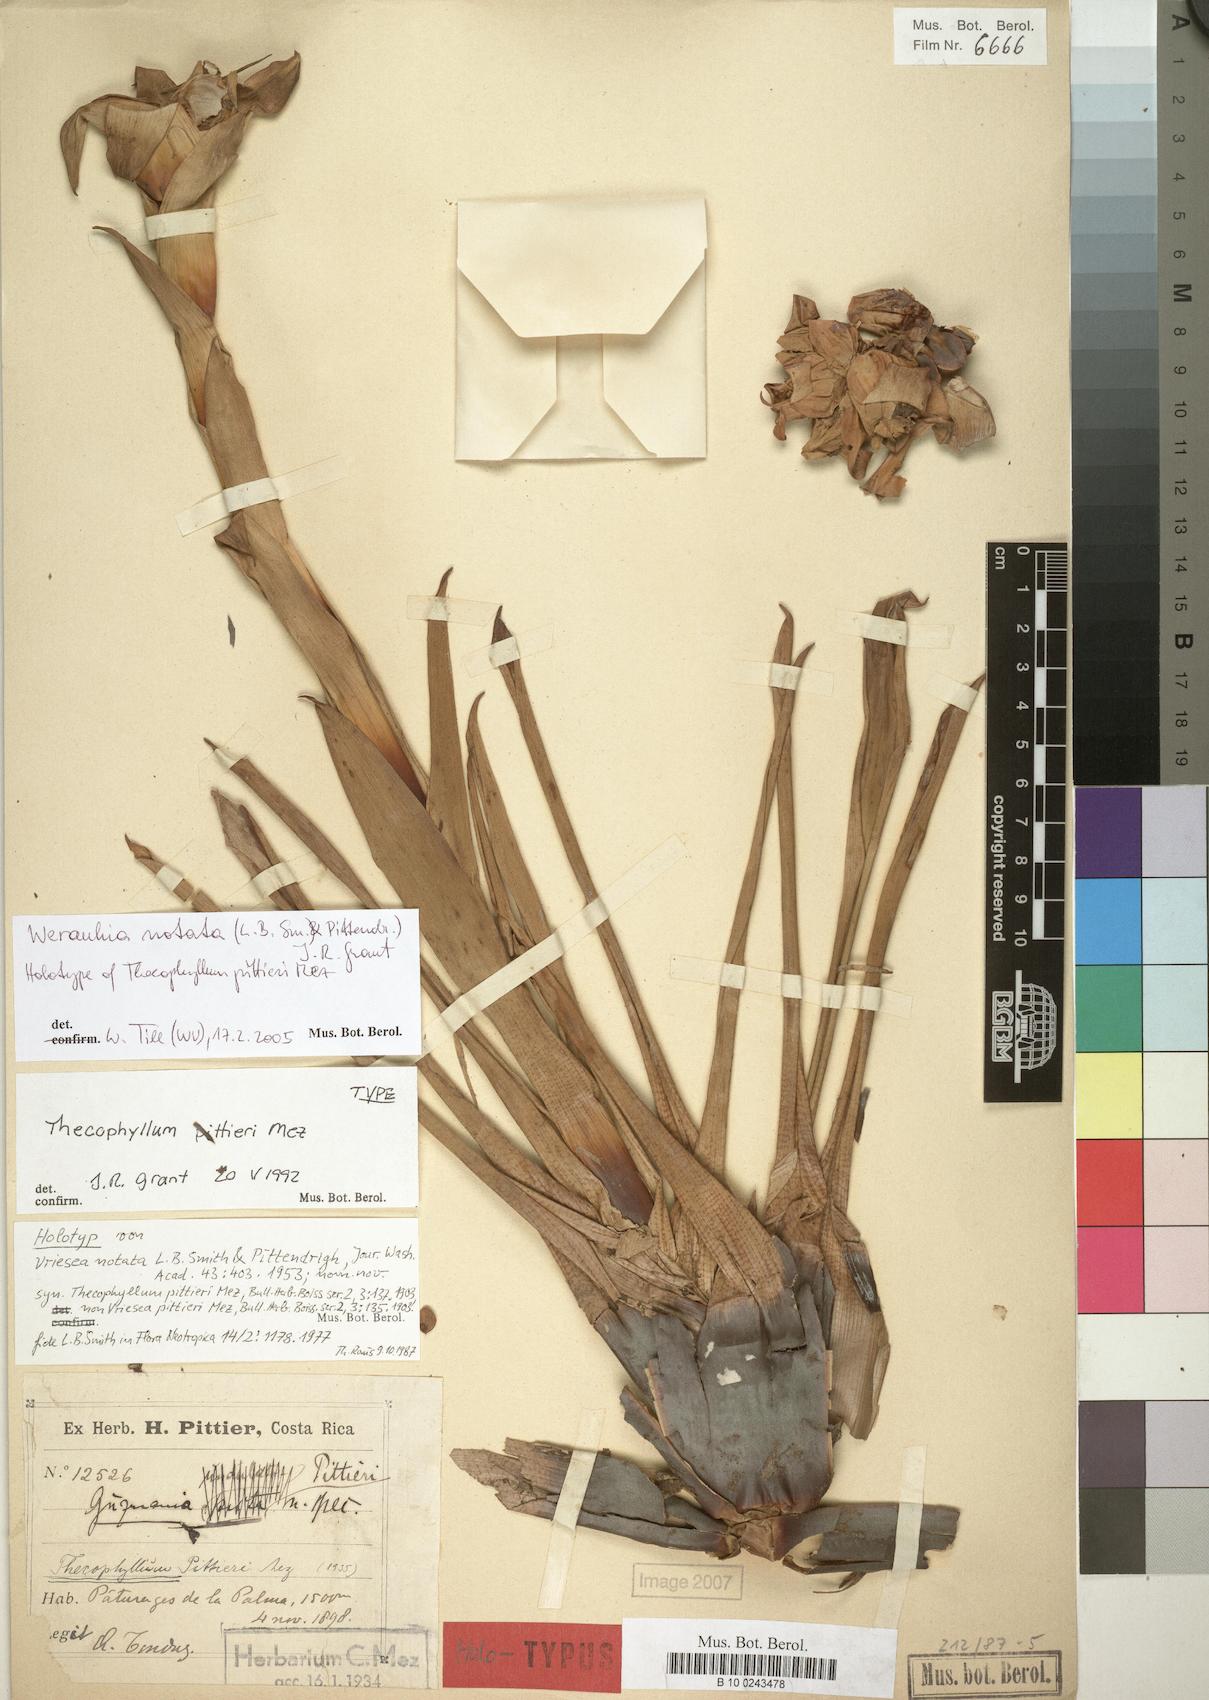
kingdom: Plantae
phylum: Tracheophyta
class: Liliopsida
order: Poales
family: Bromeliaceae
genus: Werauhia
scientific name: Werauhia notata
